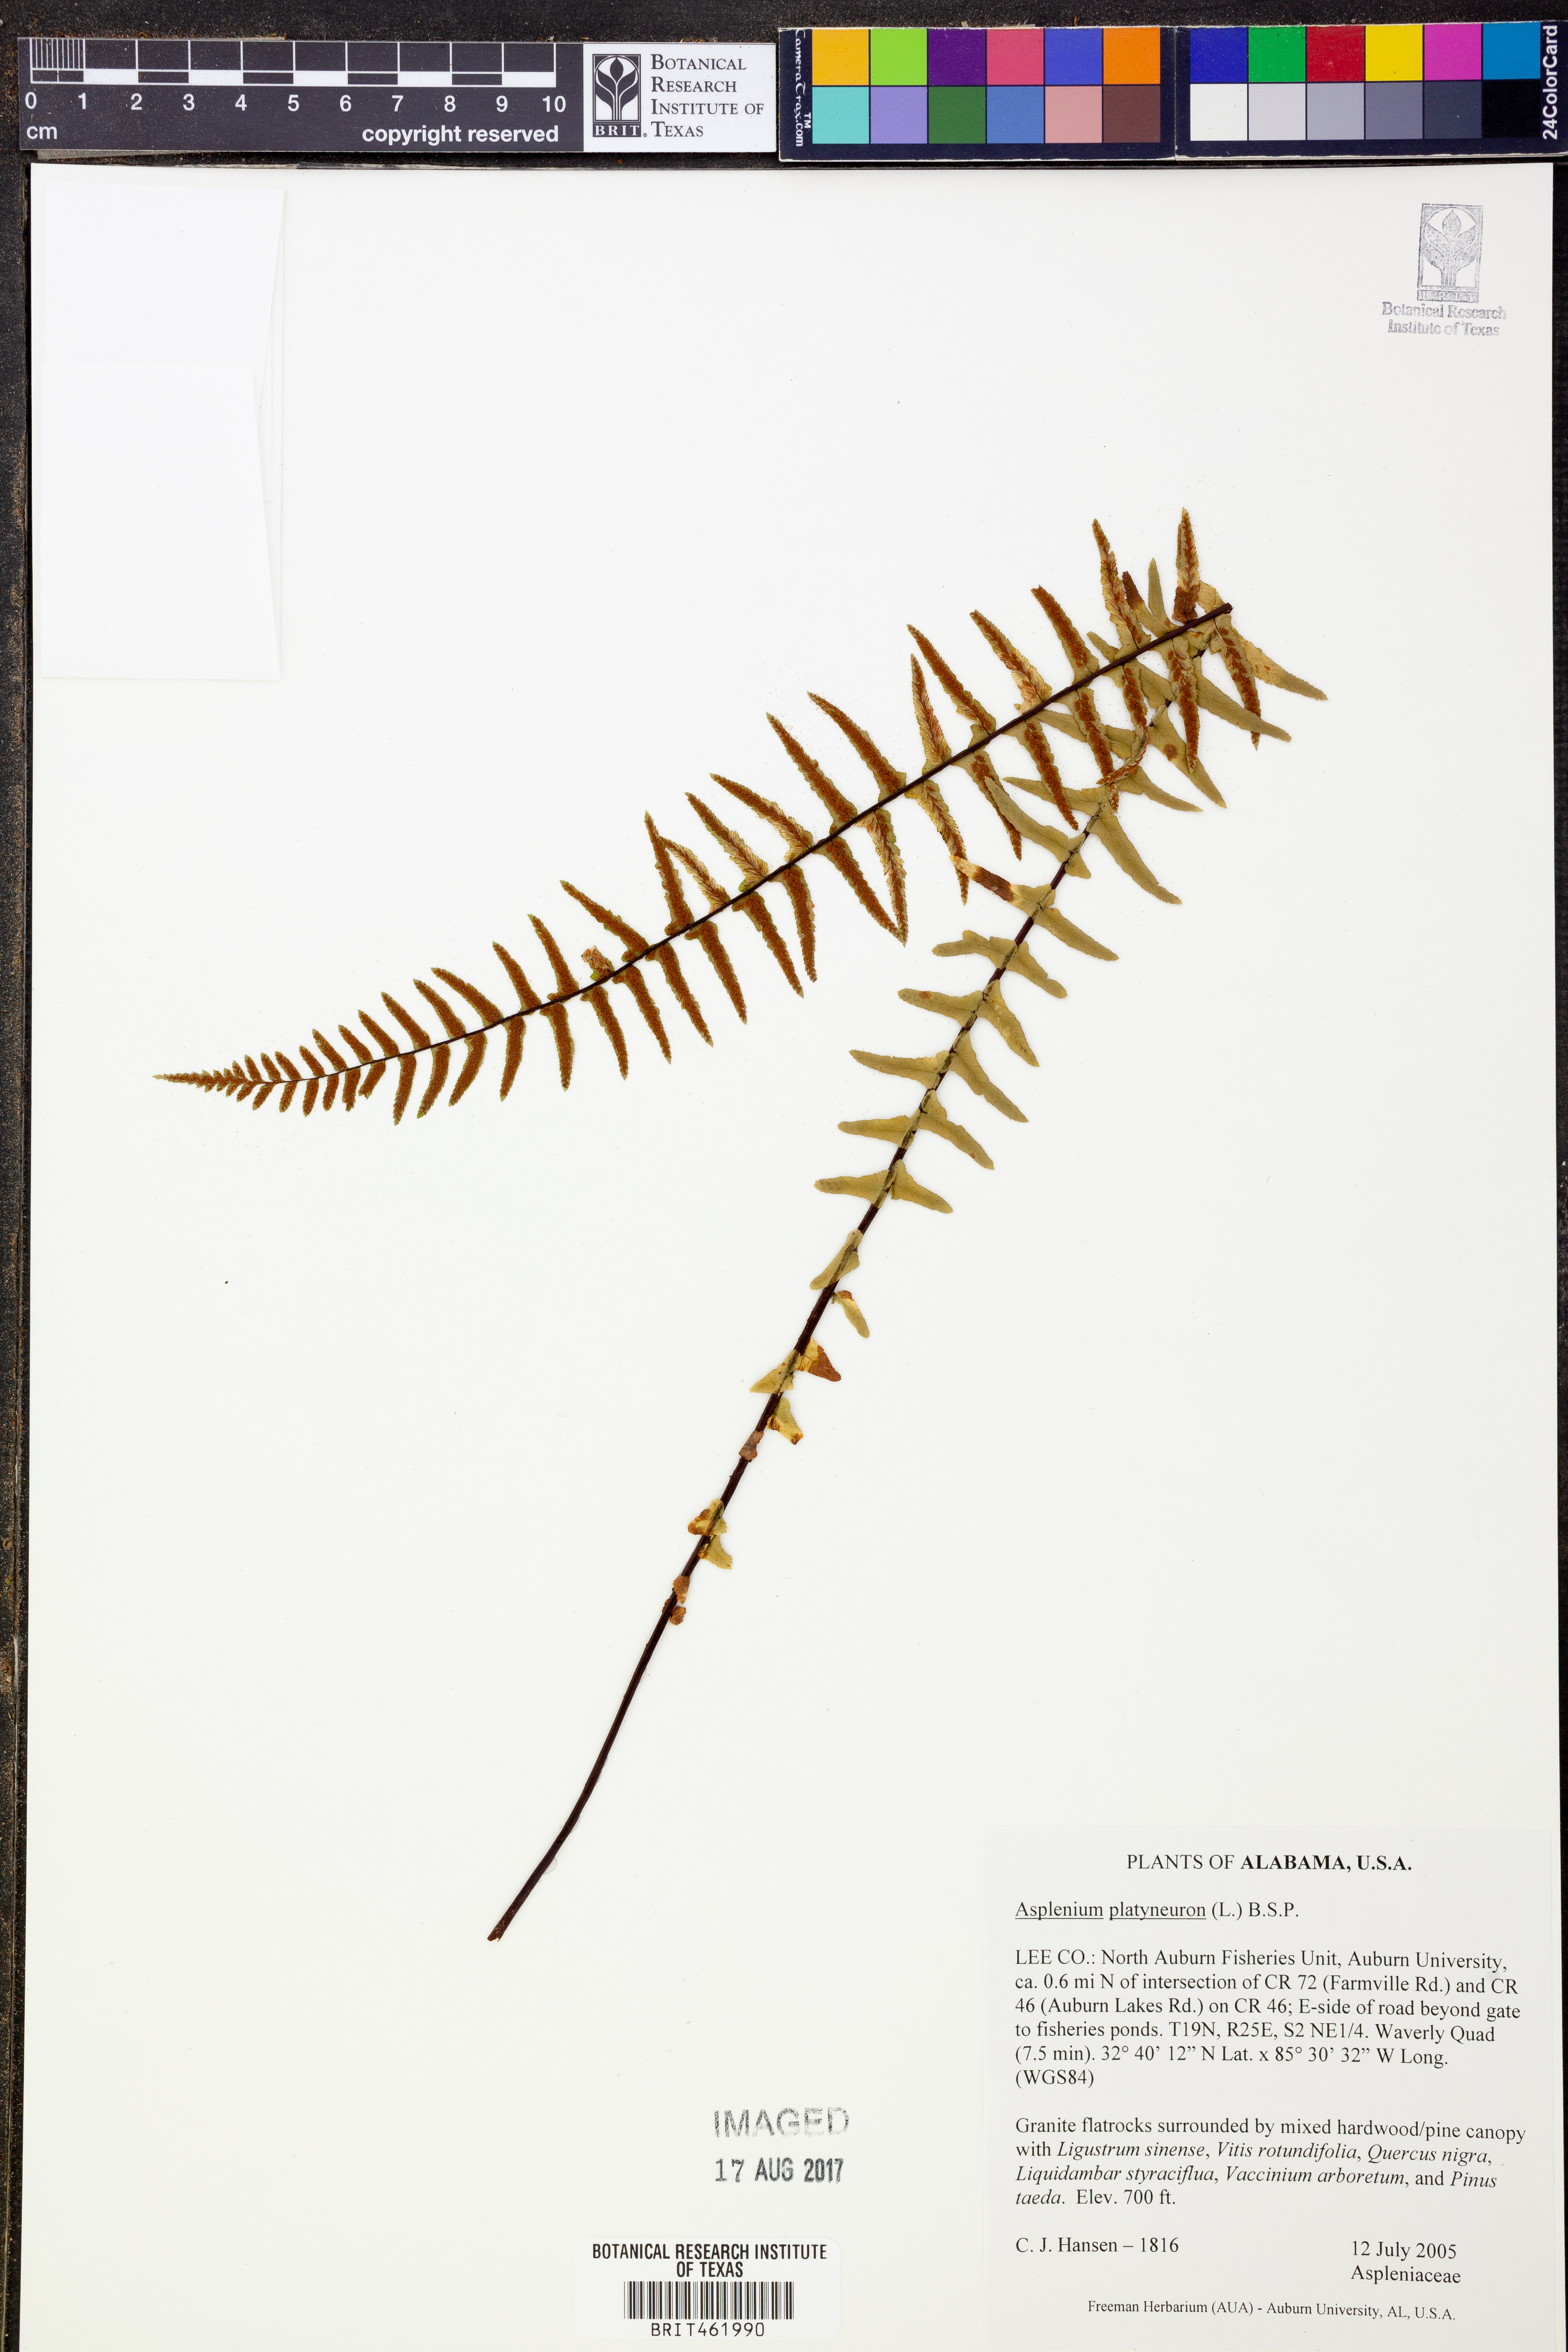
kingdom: Plantae
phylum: Tracheophyta
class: Polypodiopsida
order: Polypodiales
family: Aspleniaceae
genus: Asplenium
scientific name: Asplenium platyneuron
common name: Ebony spleenwort
